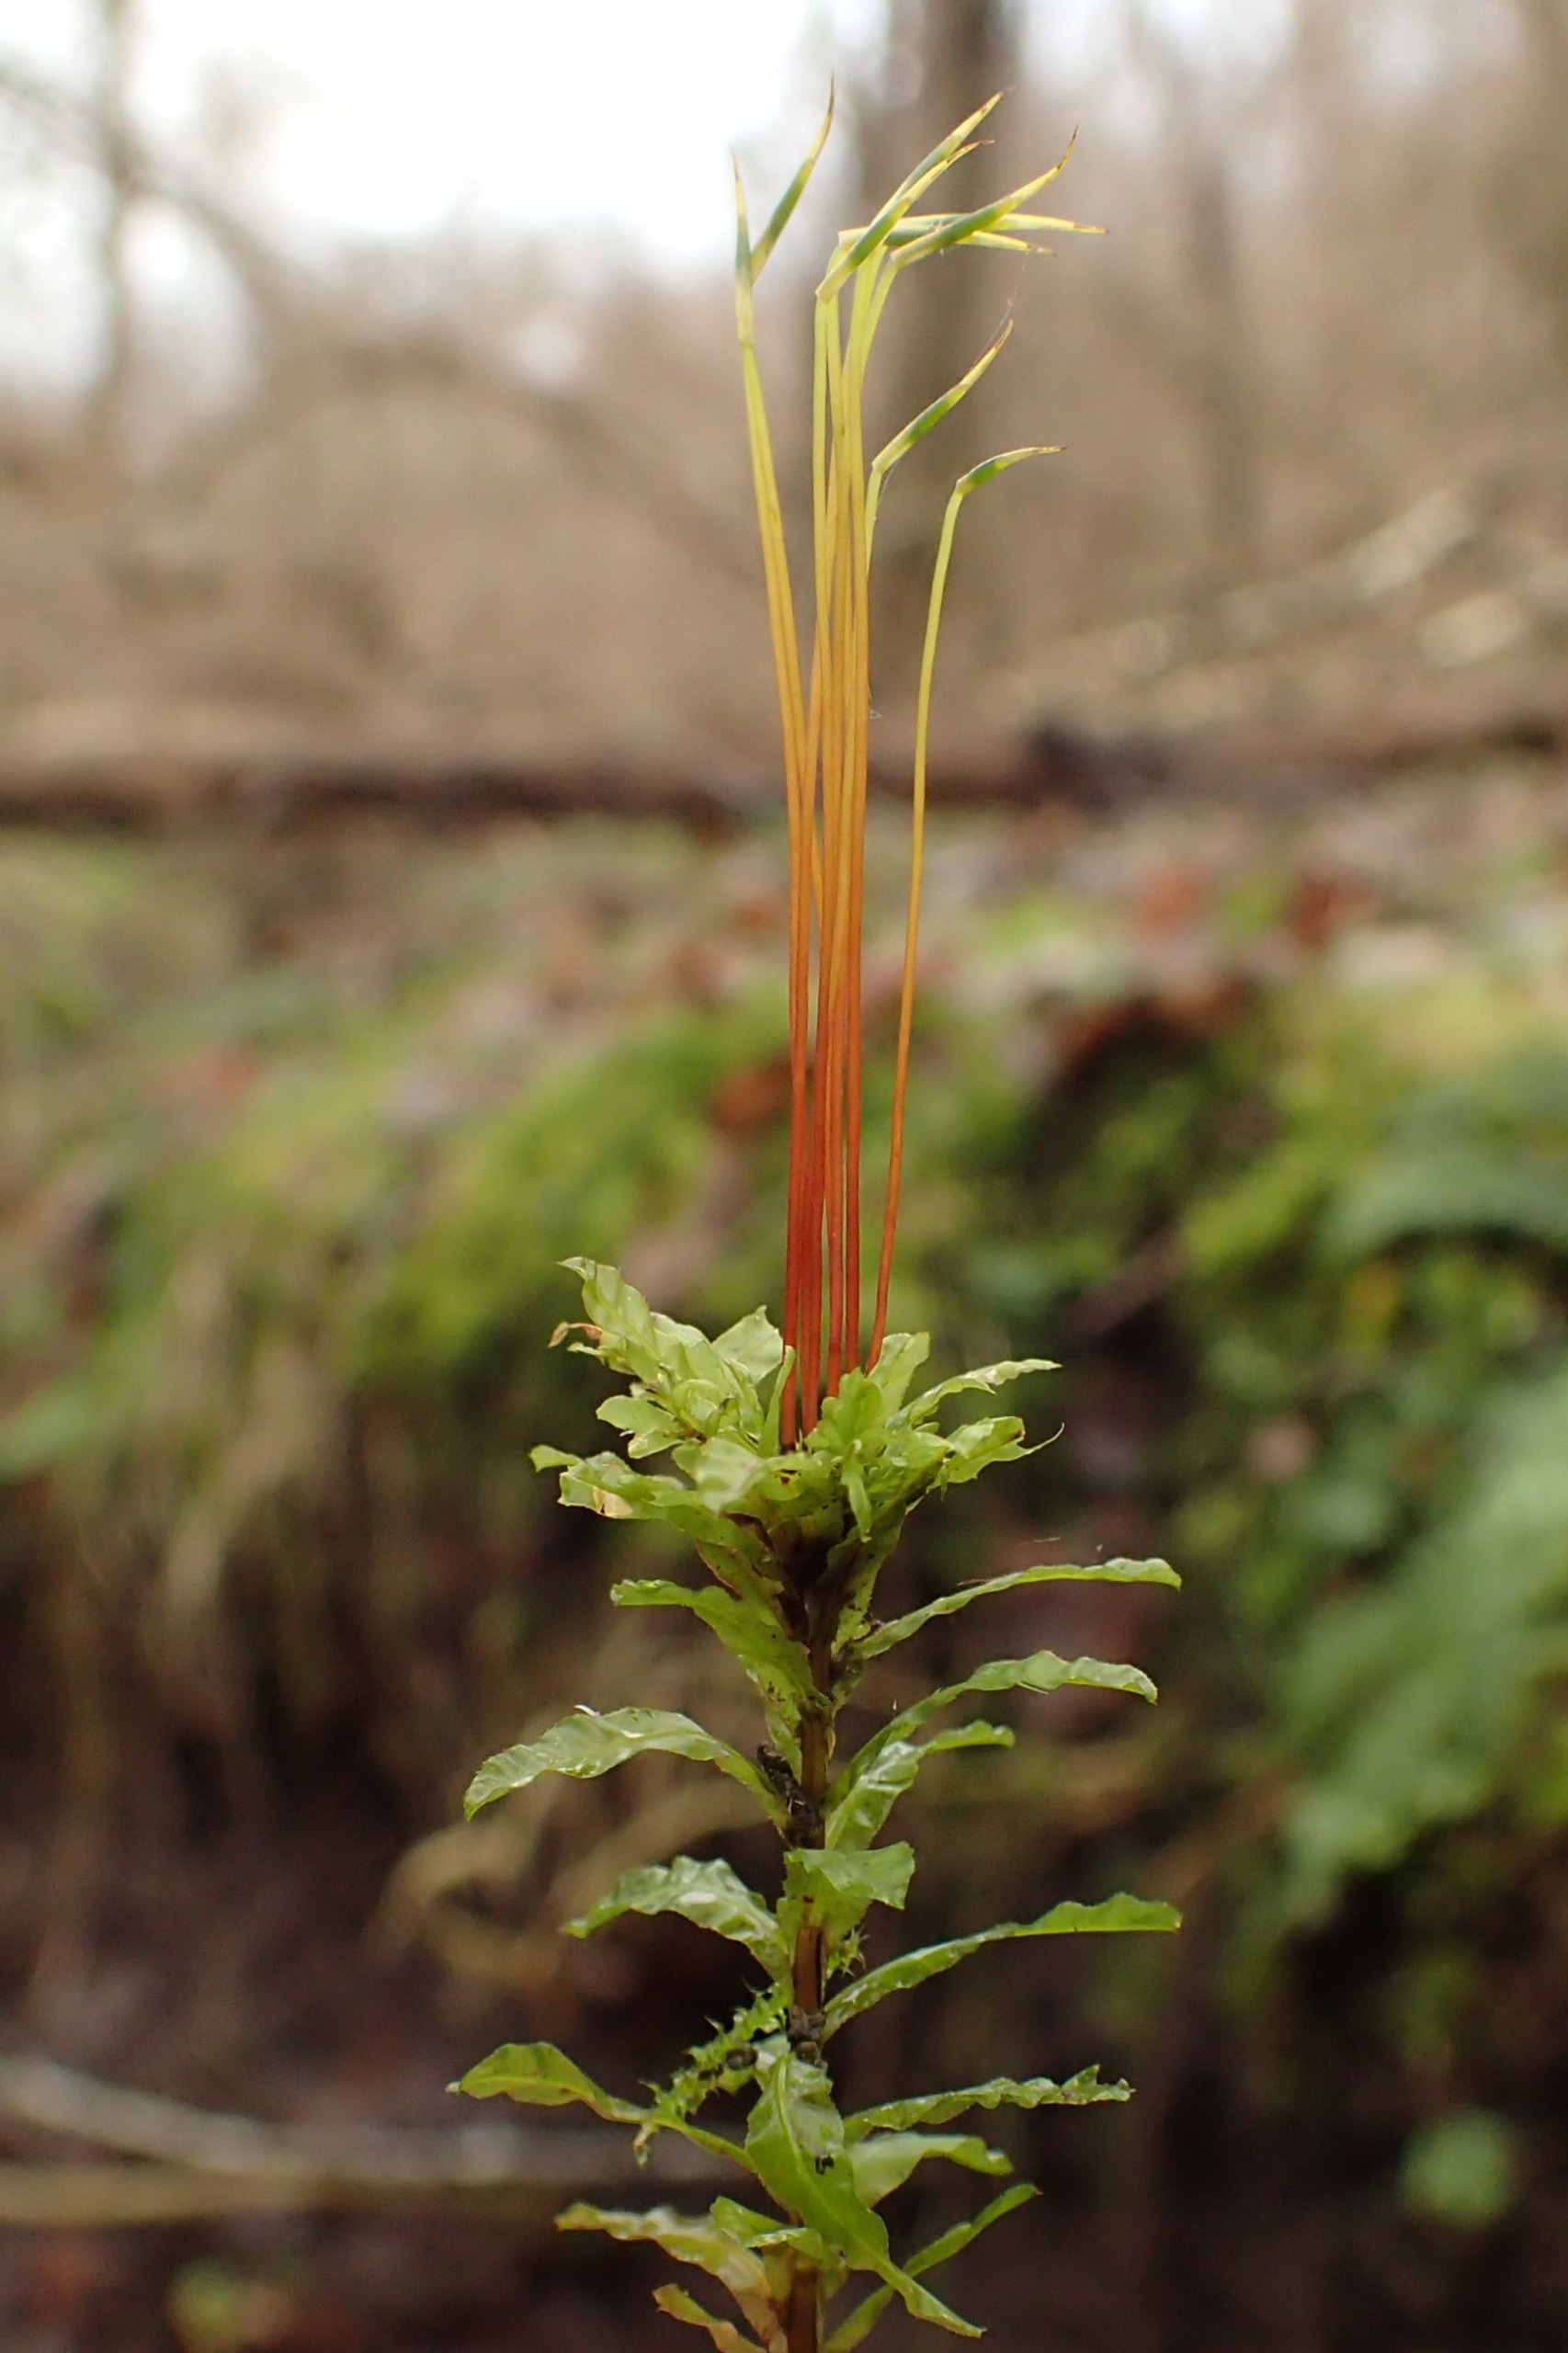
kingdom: Plantae
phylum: Bryophyta
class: Bryopsida
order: Bryales
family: Mniaceae
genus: Plagiomnium
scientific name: Plagiomnium undulatum
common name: Bølget krybstjerne
